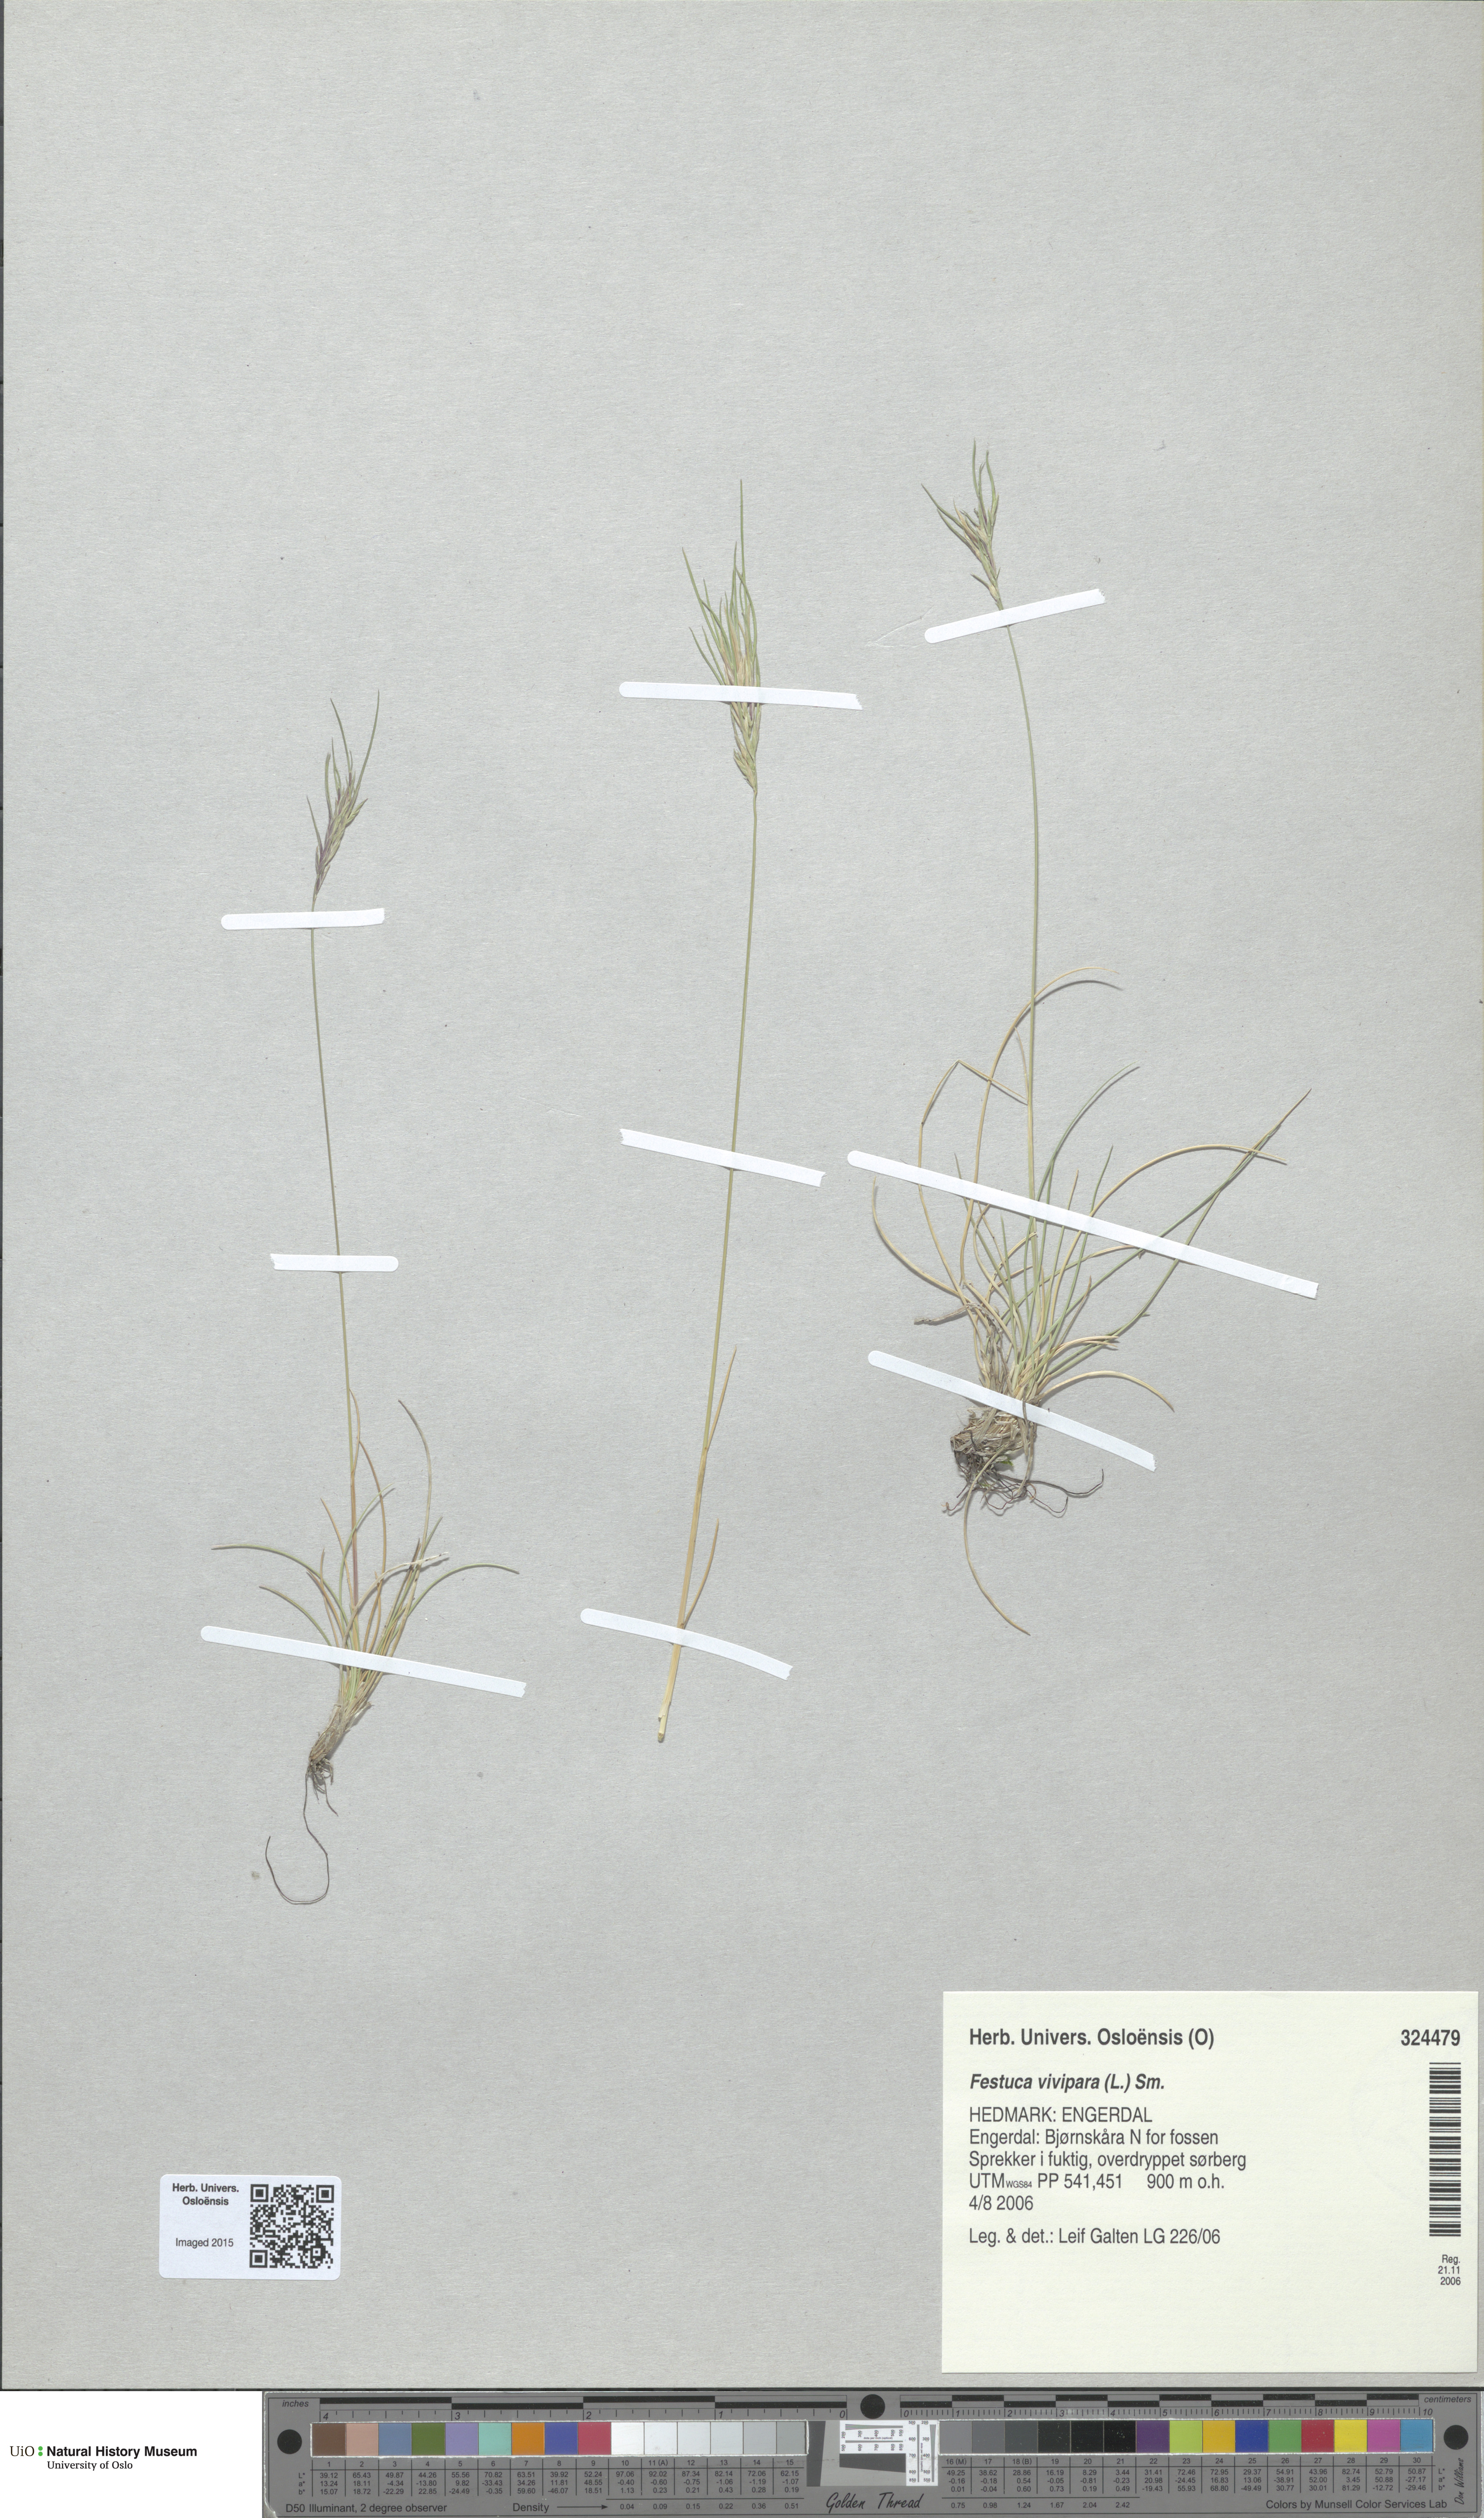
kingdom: Plantae
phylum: Tracheophyta
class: Liliopsida
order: Poales
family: Poaceae
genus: Festuca
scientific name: Festuca vivipara
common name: Viviparous sheep's-fescue
